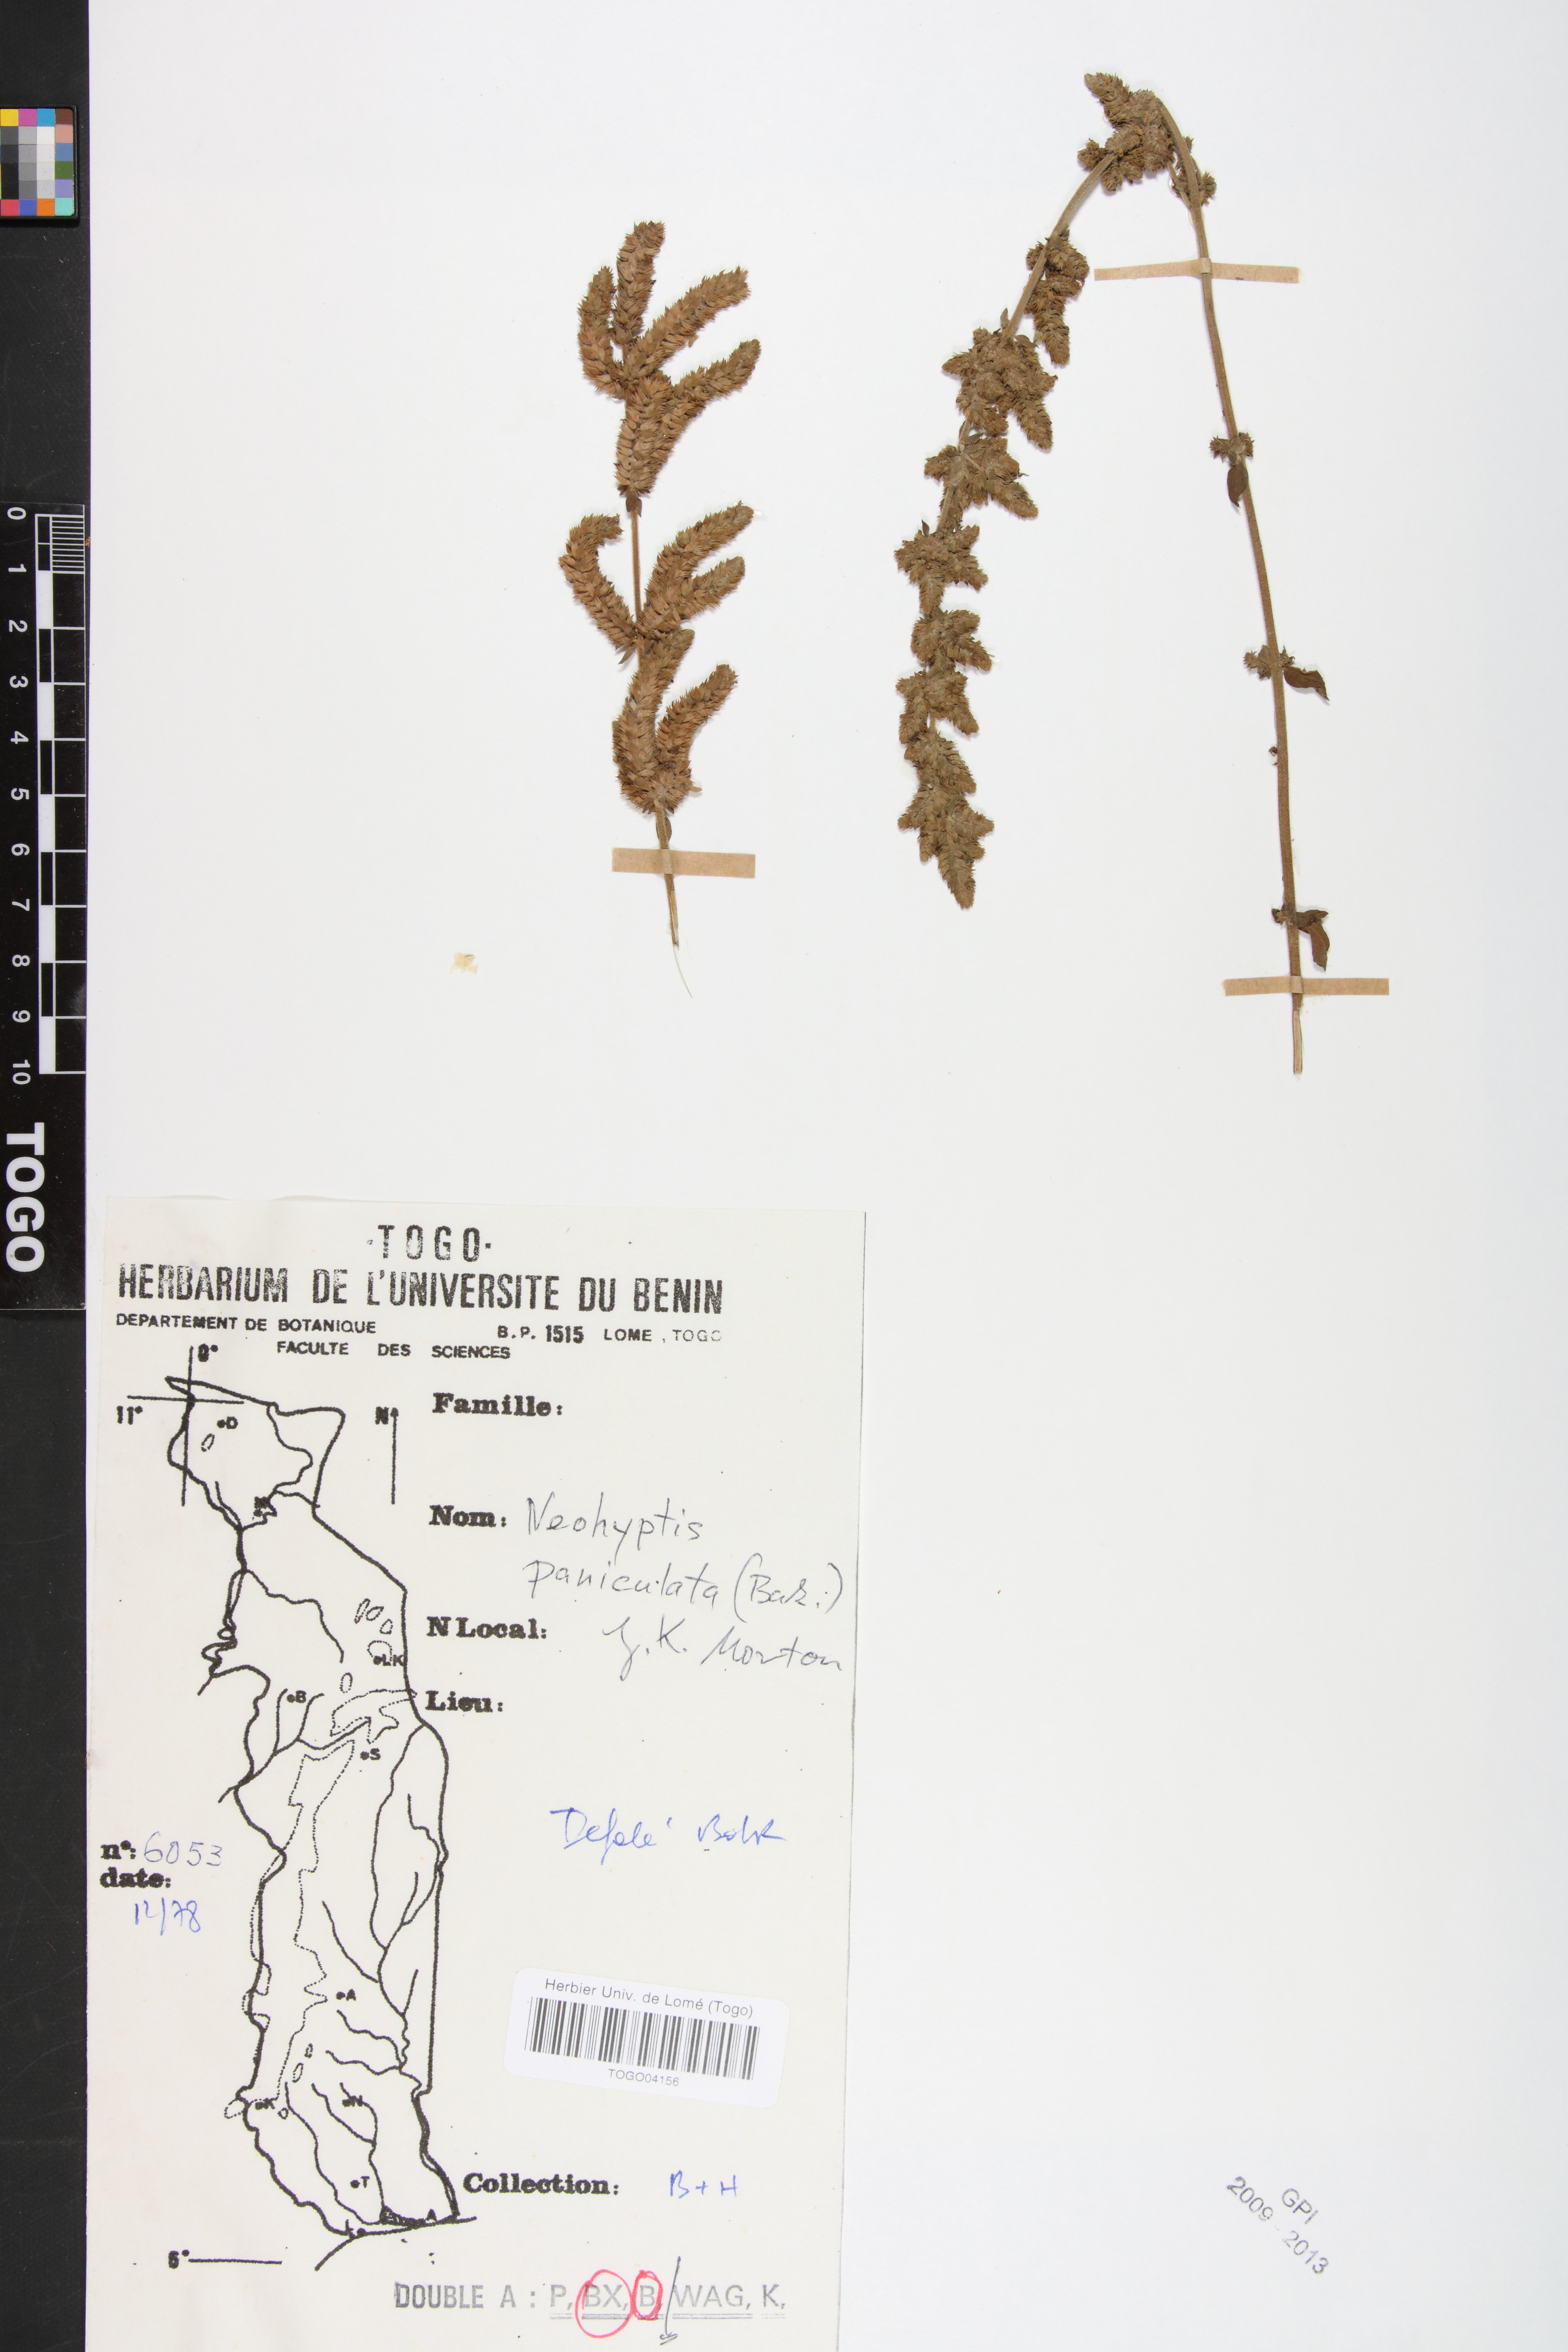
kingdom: Plantae
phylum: Tracheophyta
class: Magnoliopsida
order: Lamiales
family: Lamiaceae
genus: Coleus
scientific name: Coleus guerkei
